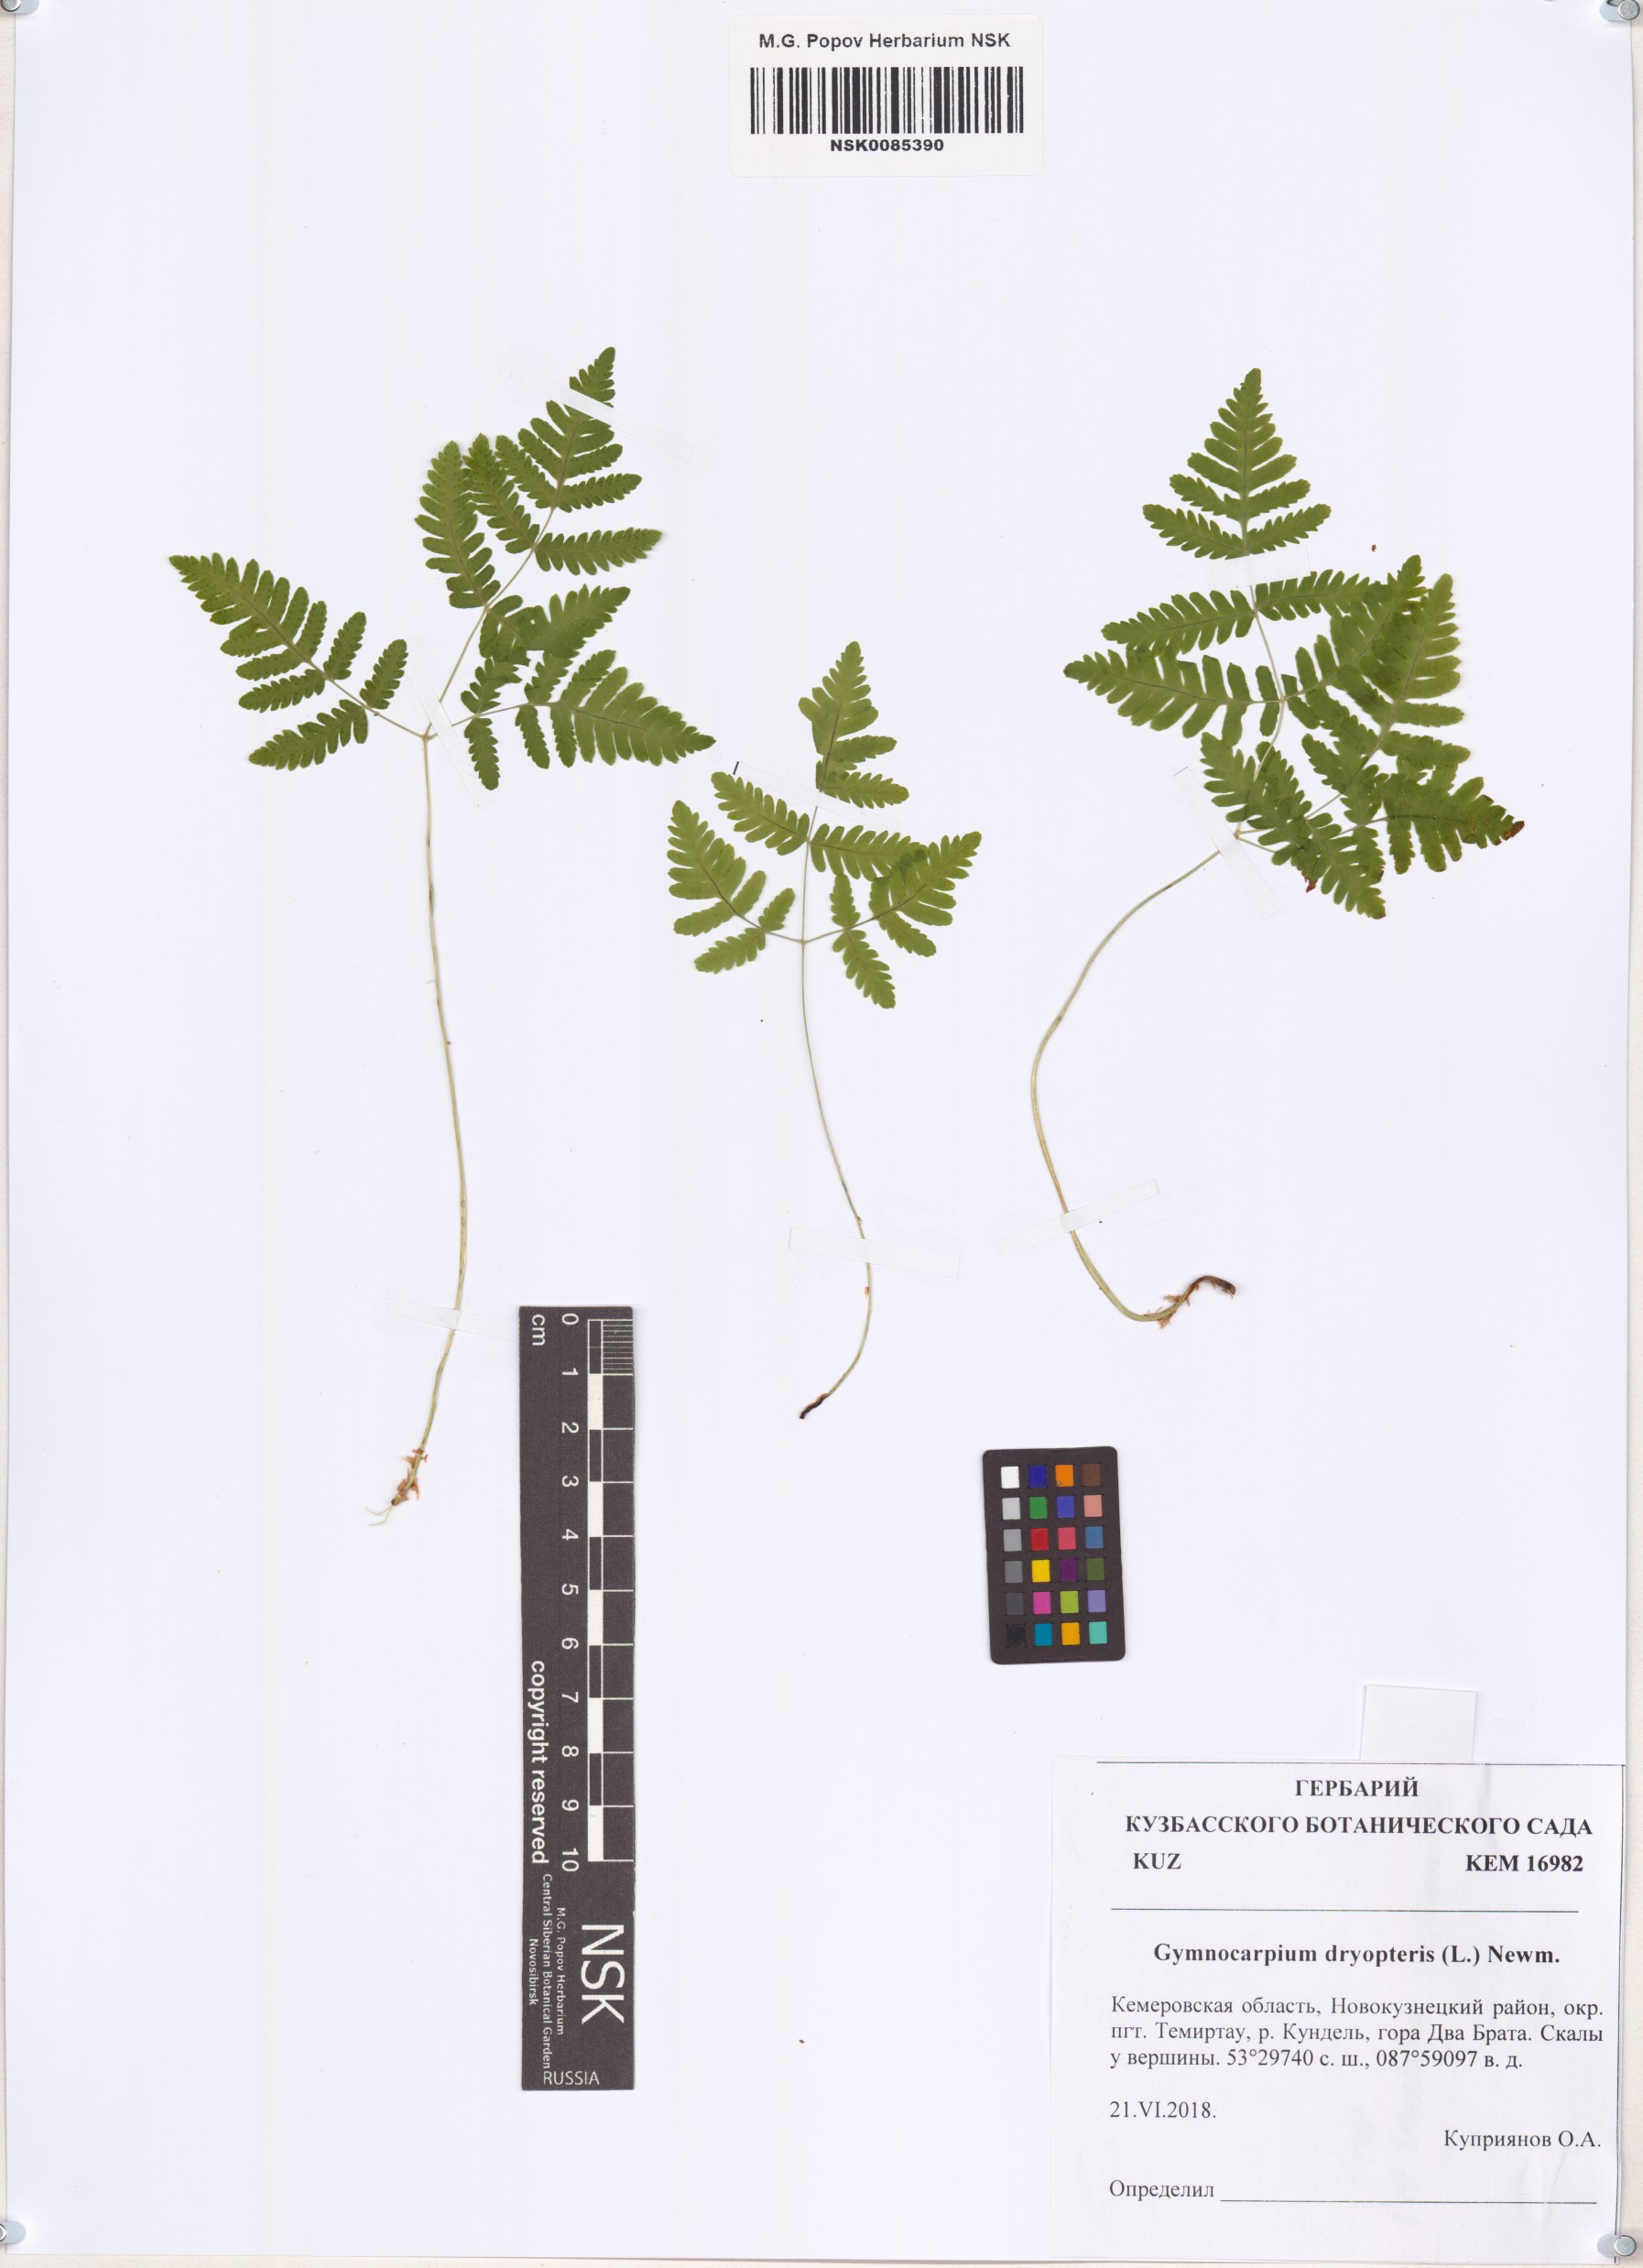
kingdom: Plantae
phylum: Tracheophyta
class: Polypodiopsida
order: Polypodiales
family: Cystopteridaceae
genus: Gymnocarpium
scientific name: Gymnocarpium dryopteris
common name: Oak fern
